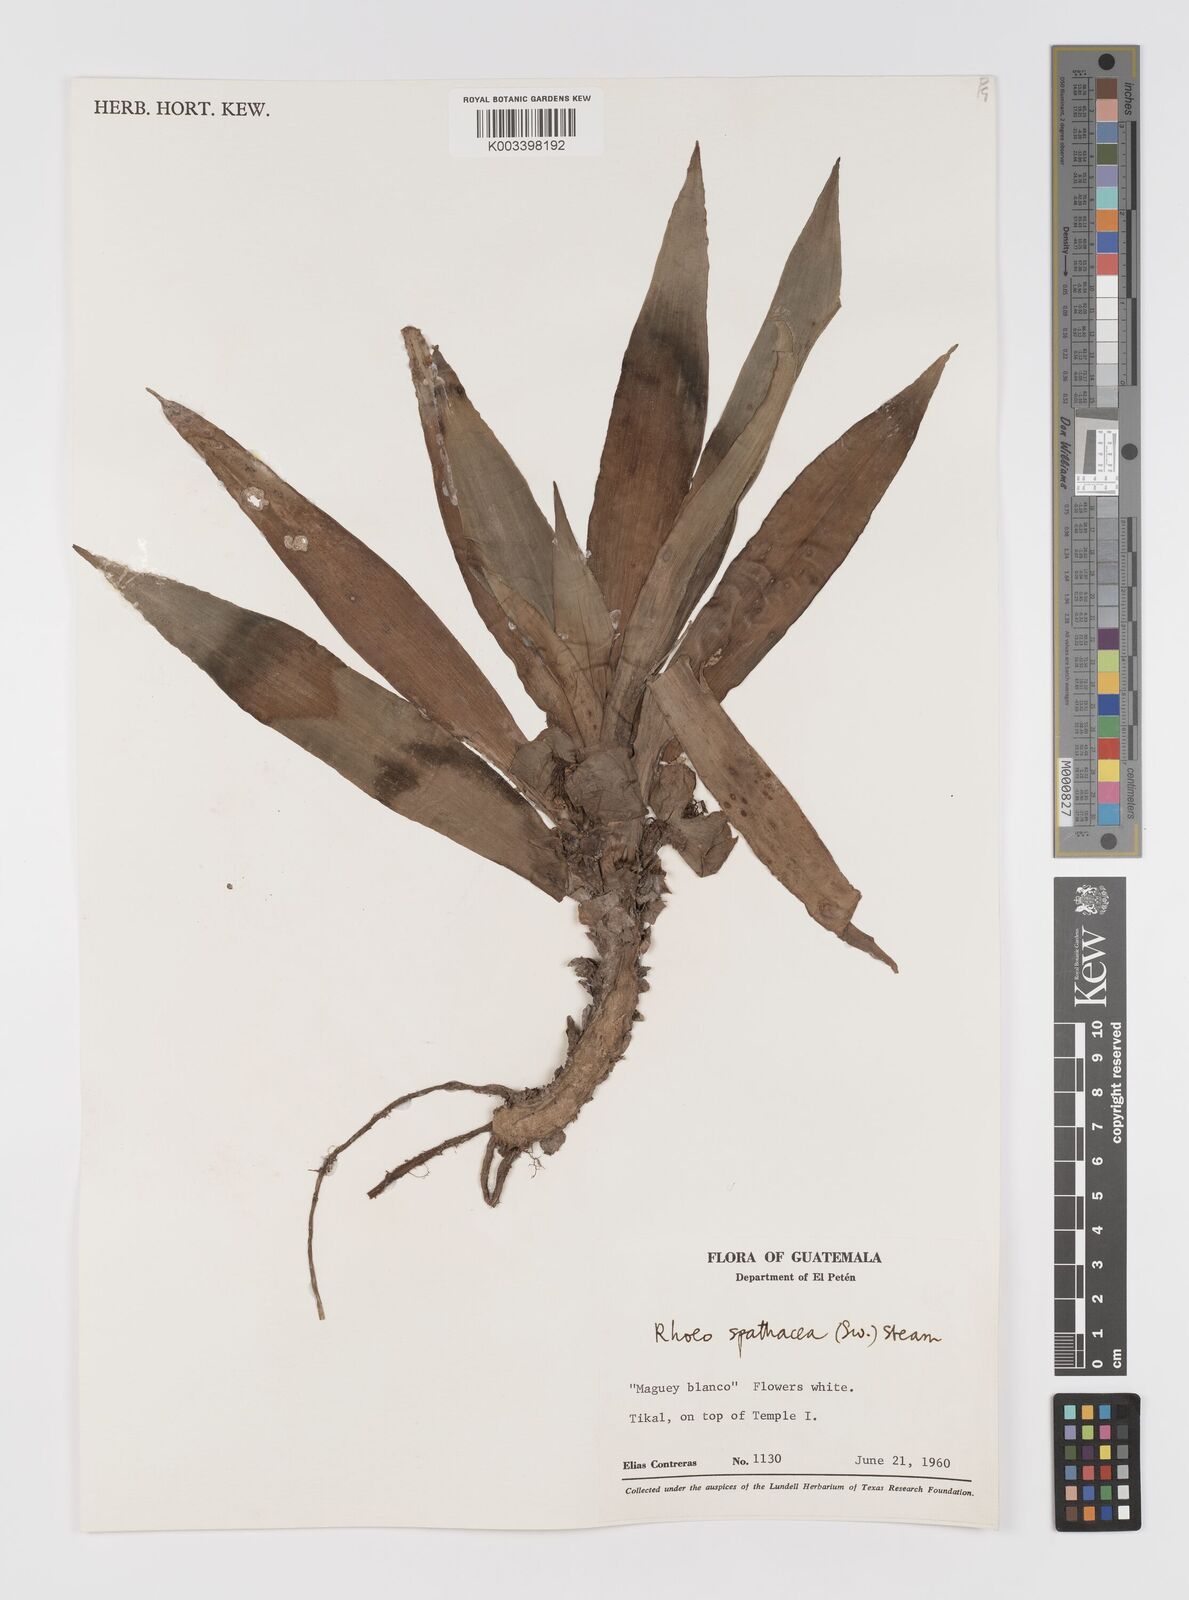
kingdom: Plantae
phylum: Tracheophyta
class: Liliopsida
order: Commelinales
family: Commelinaceae
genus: Tradescantia
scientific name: Tradescantia spathacea
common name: Boatlily
